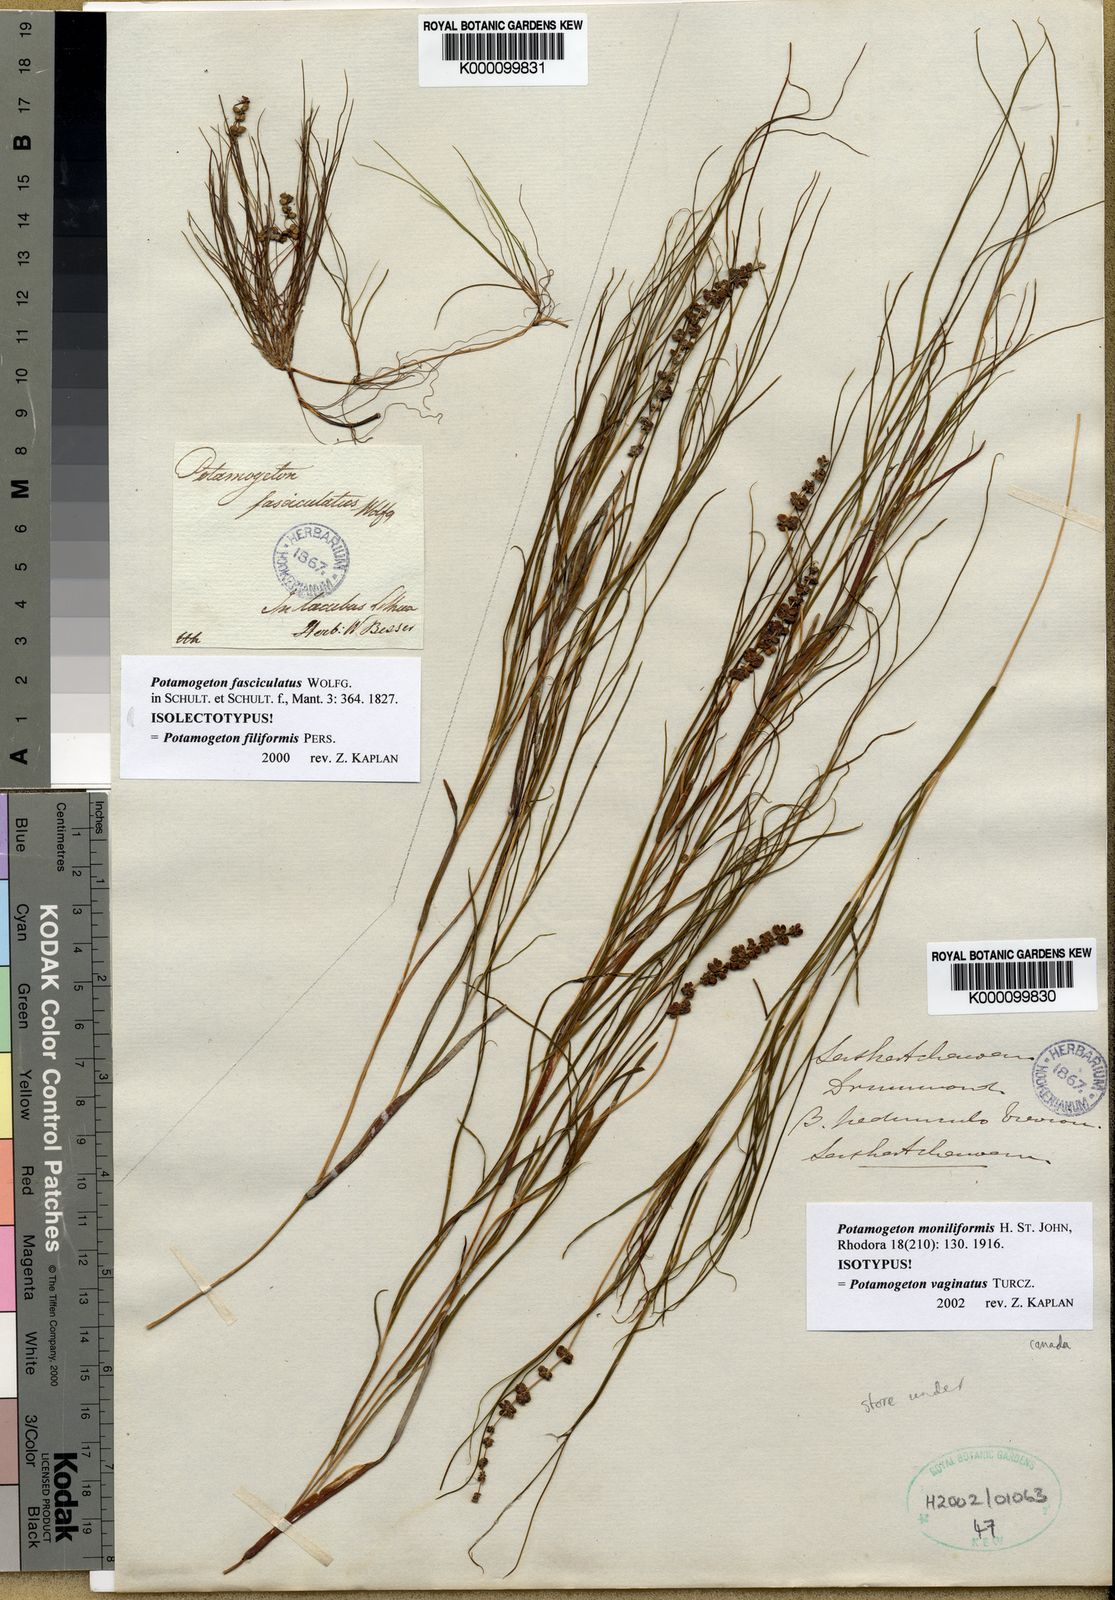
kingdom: Plantae
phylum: Tracheophyta
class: Liliopsida
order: Alismatales
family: Potamogetonaceae
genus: Stuckenia
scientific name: Stuckenia vaginata
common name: Big-sheathed pondweed
